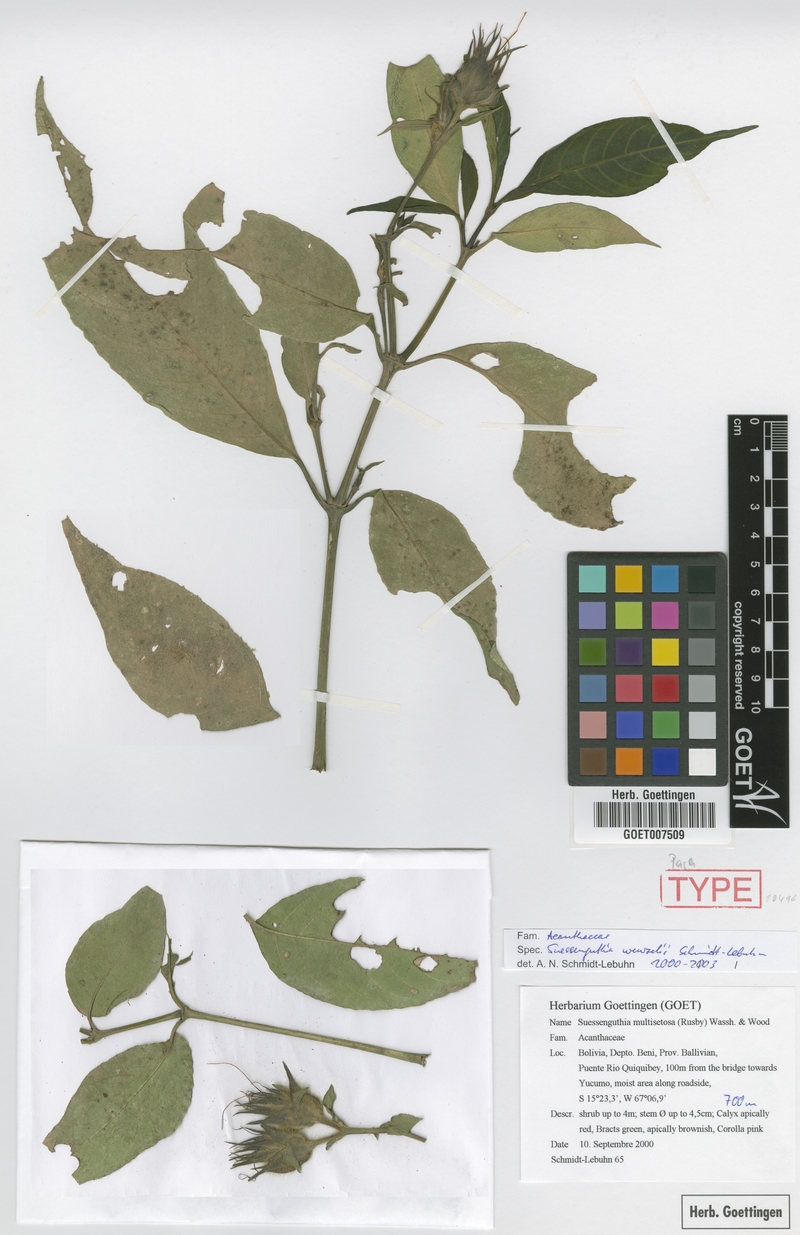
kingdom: Plantae
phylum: Tracheophyta
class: Magnoliopsida
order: Lamiales
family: Acanthaceae
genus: Suessenguthia
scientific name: Suessenguthia wenzelii
